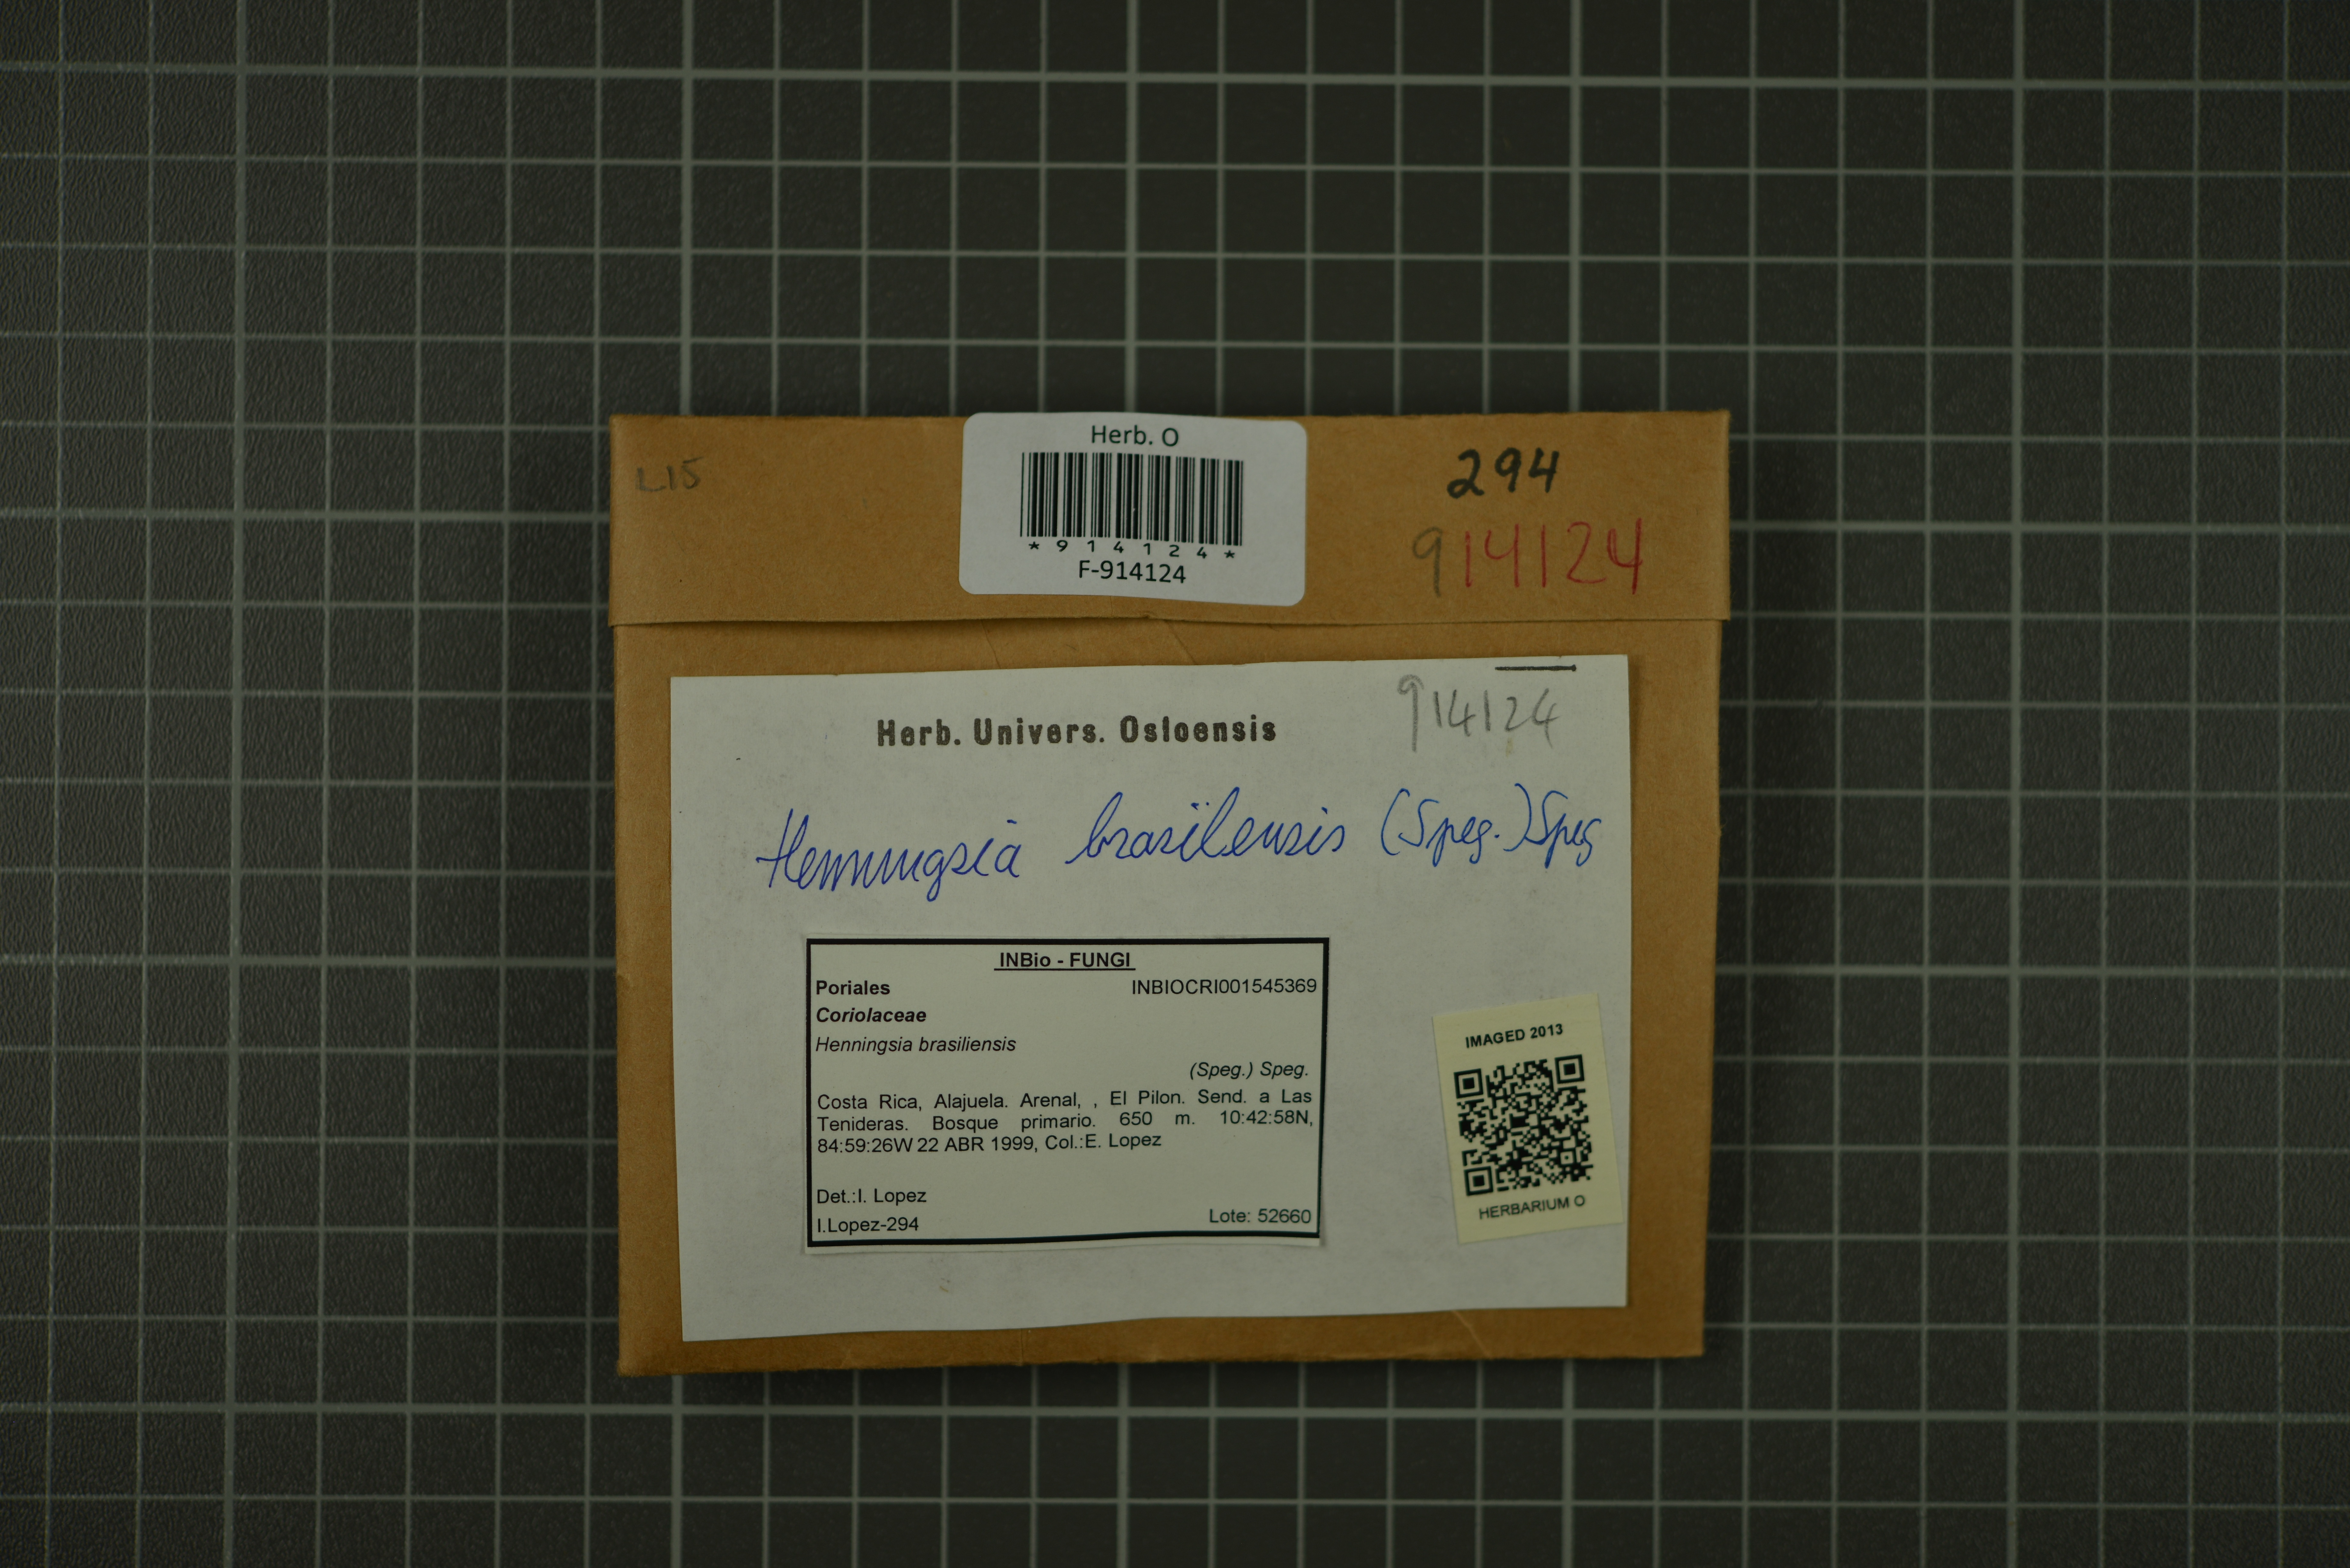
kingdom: Fungi
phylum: Basidiomycota
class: Agaricomycetes
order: Polyporales
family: Meripilaceae
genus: Henningsia
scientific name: Henningsia brasiliensis
